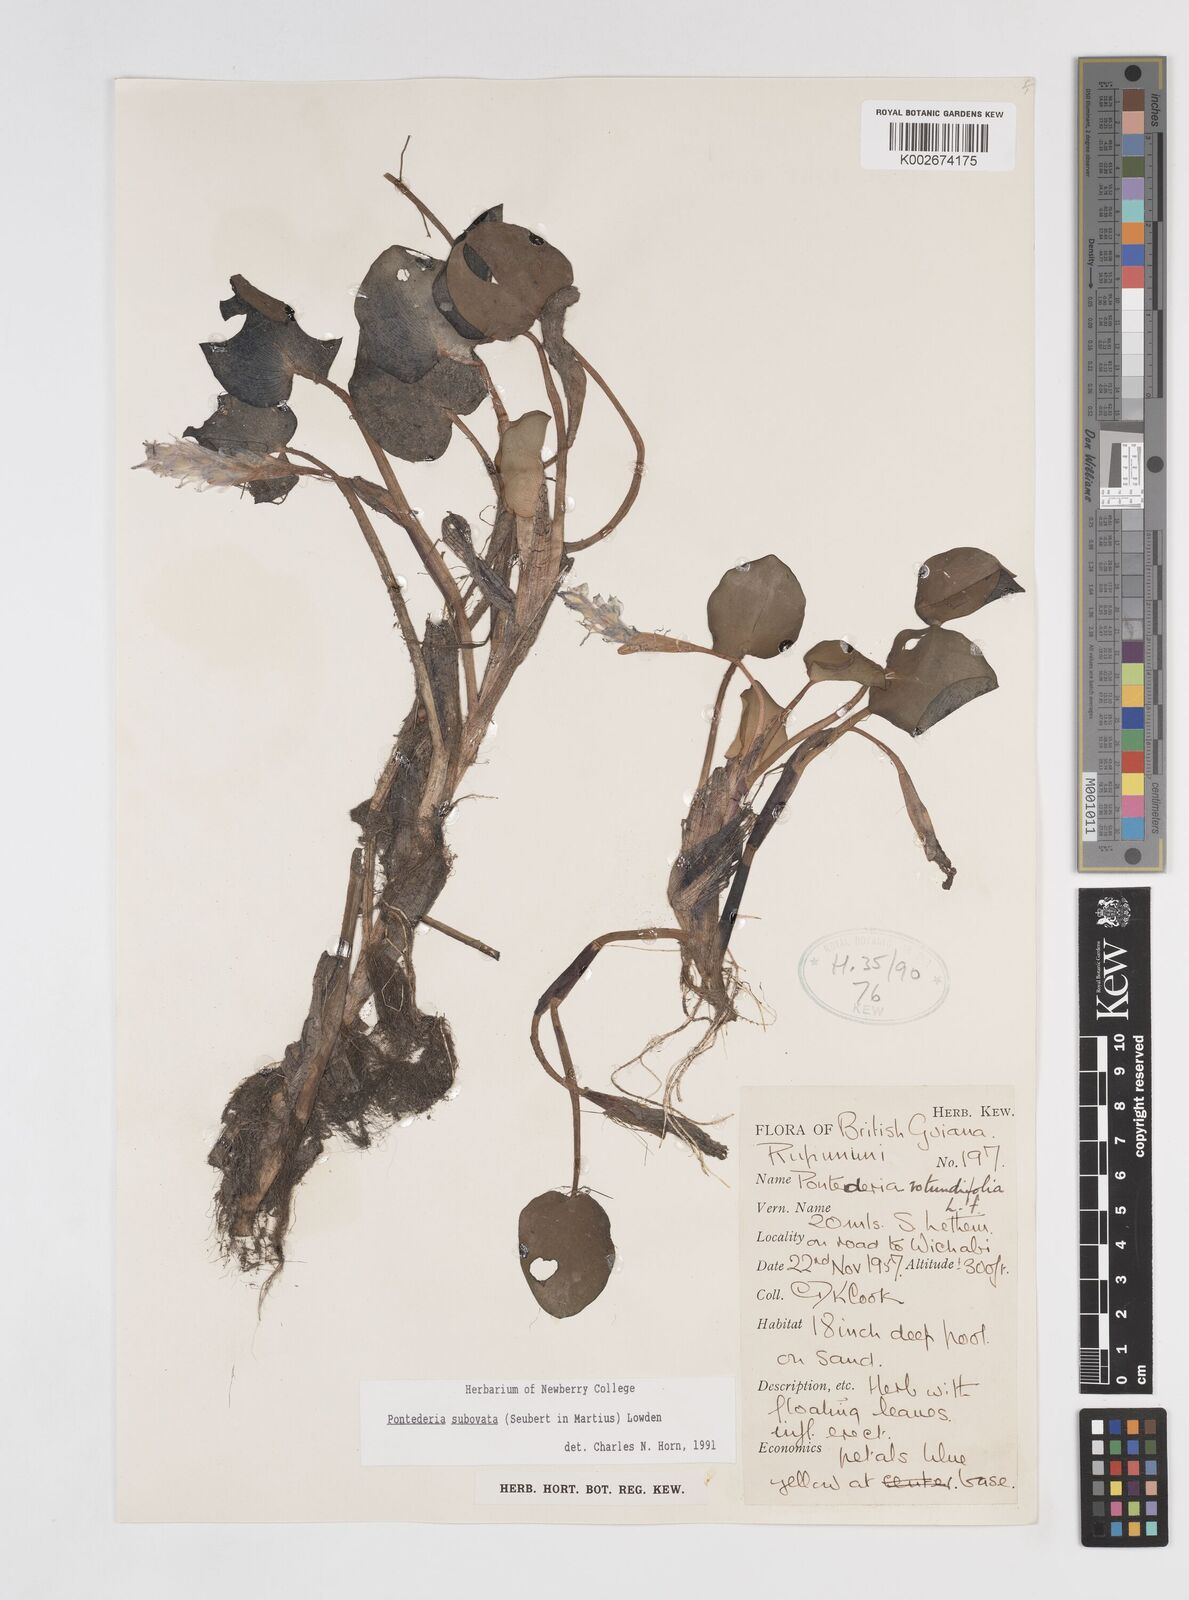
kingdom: Plantae
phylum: Tracheophyta
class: Liliopsida
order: Commelinales
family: Pontederiaceae
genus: Pontederia
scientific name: Pontederia subovata
